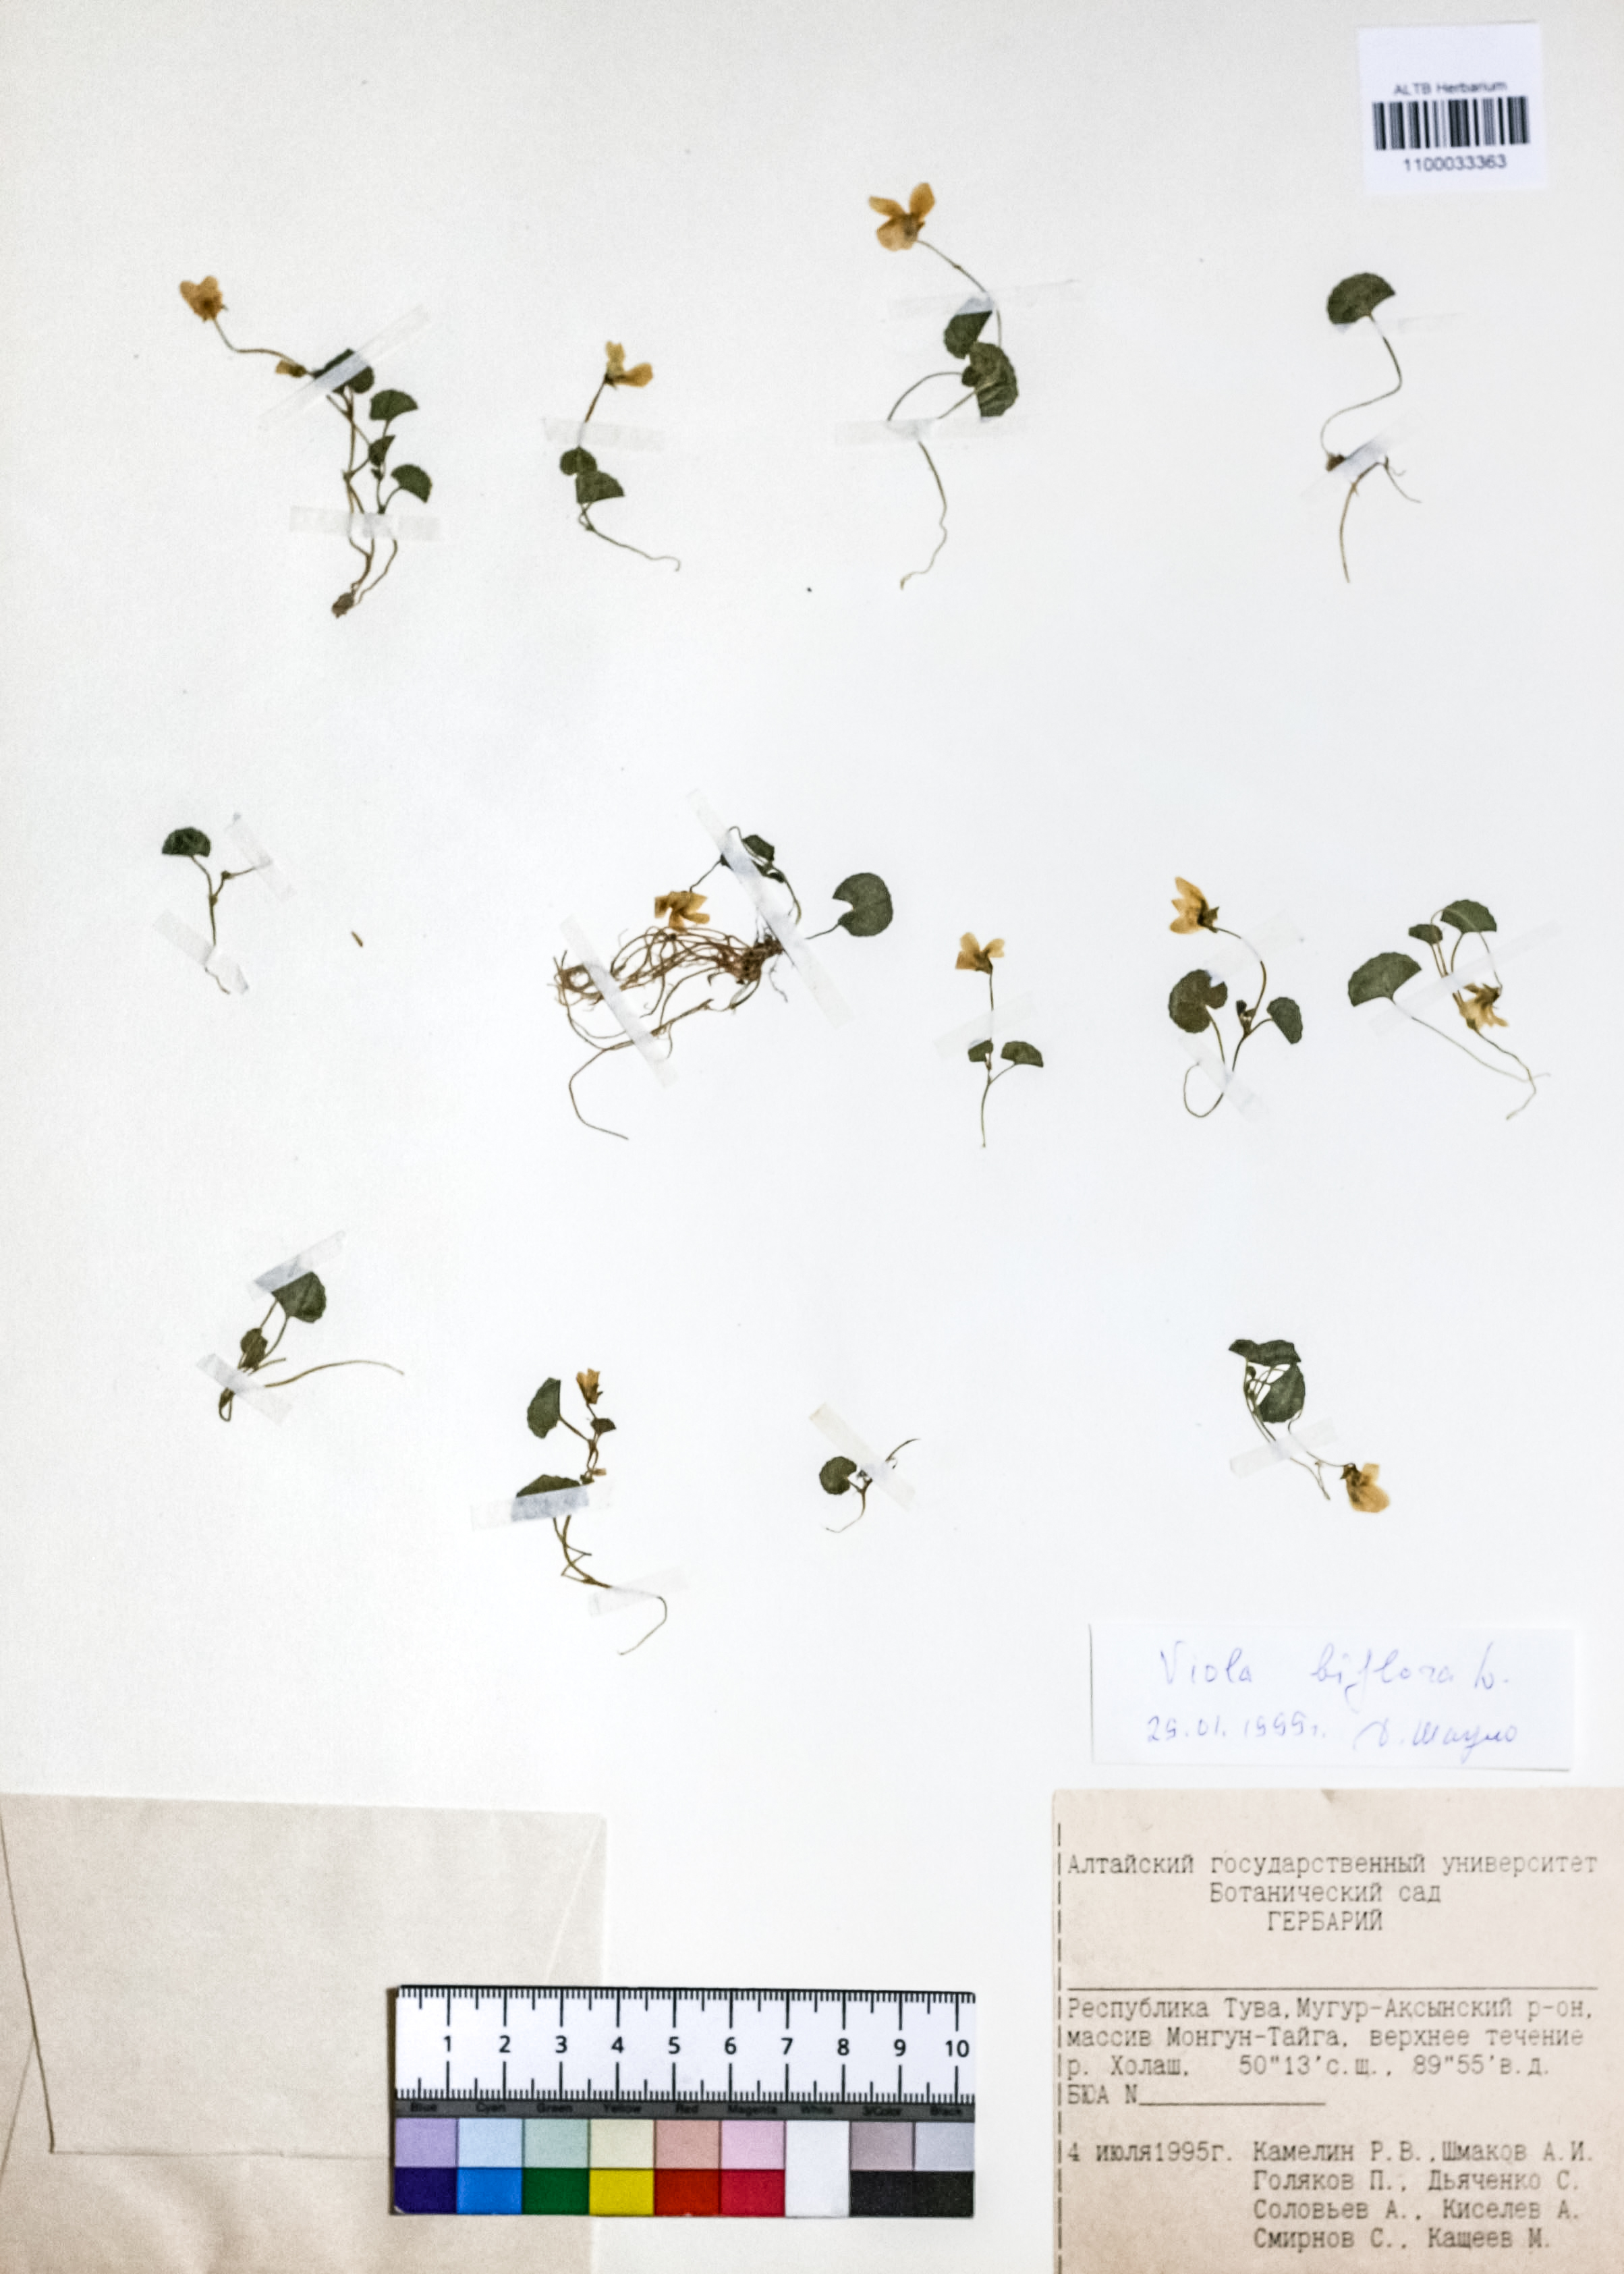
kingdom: Plantae
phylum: Tracheophyta
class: Magnoliopsida
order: Malpighiales
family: Violaceae
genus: Viola
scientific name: Viola biflora
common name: Alpine yellow violet
